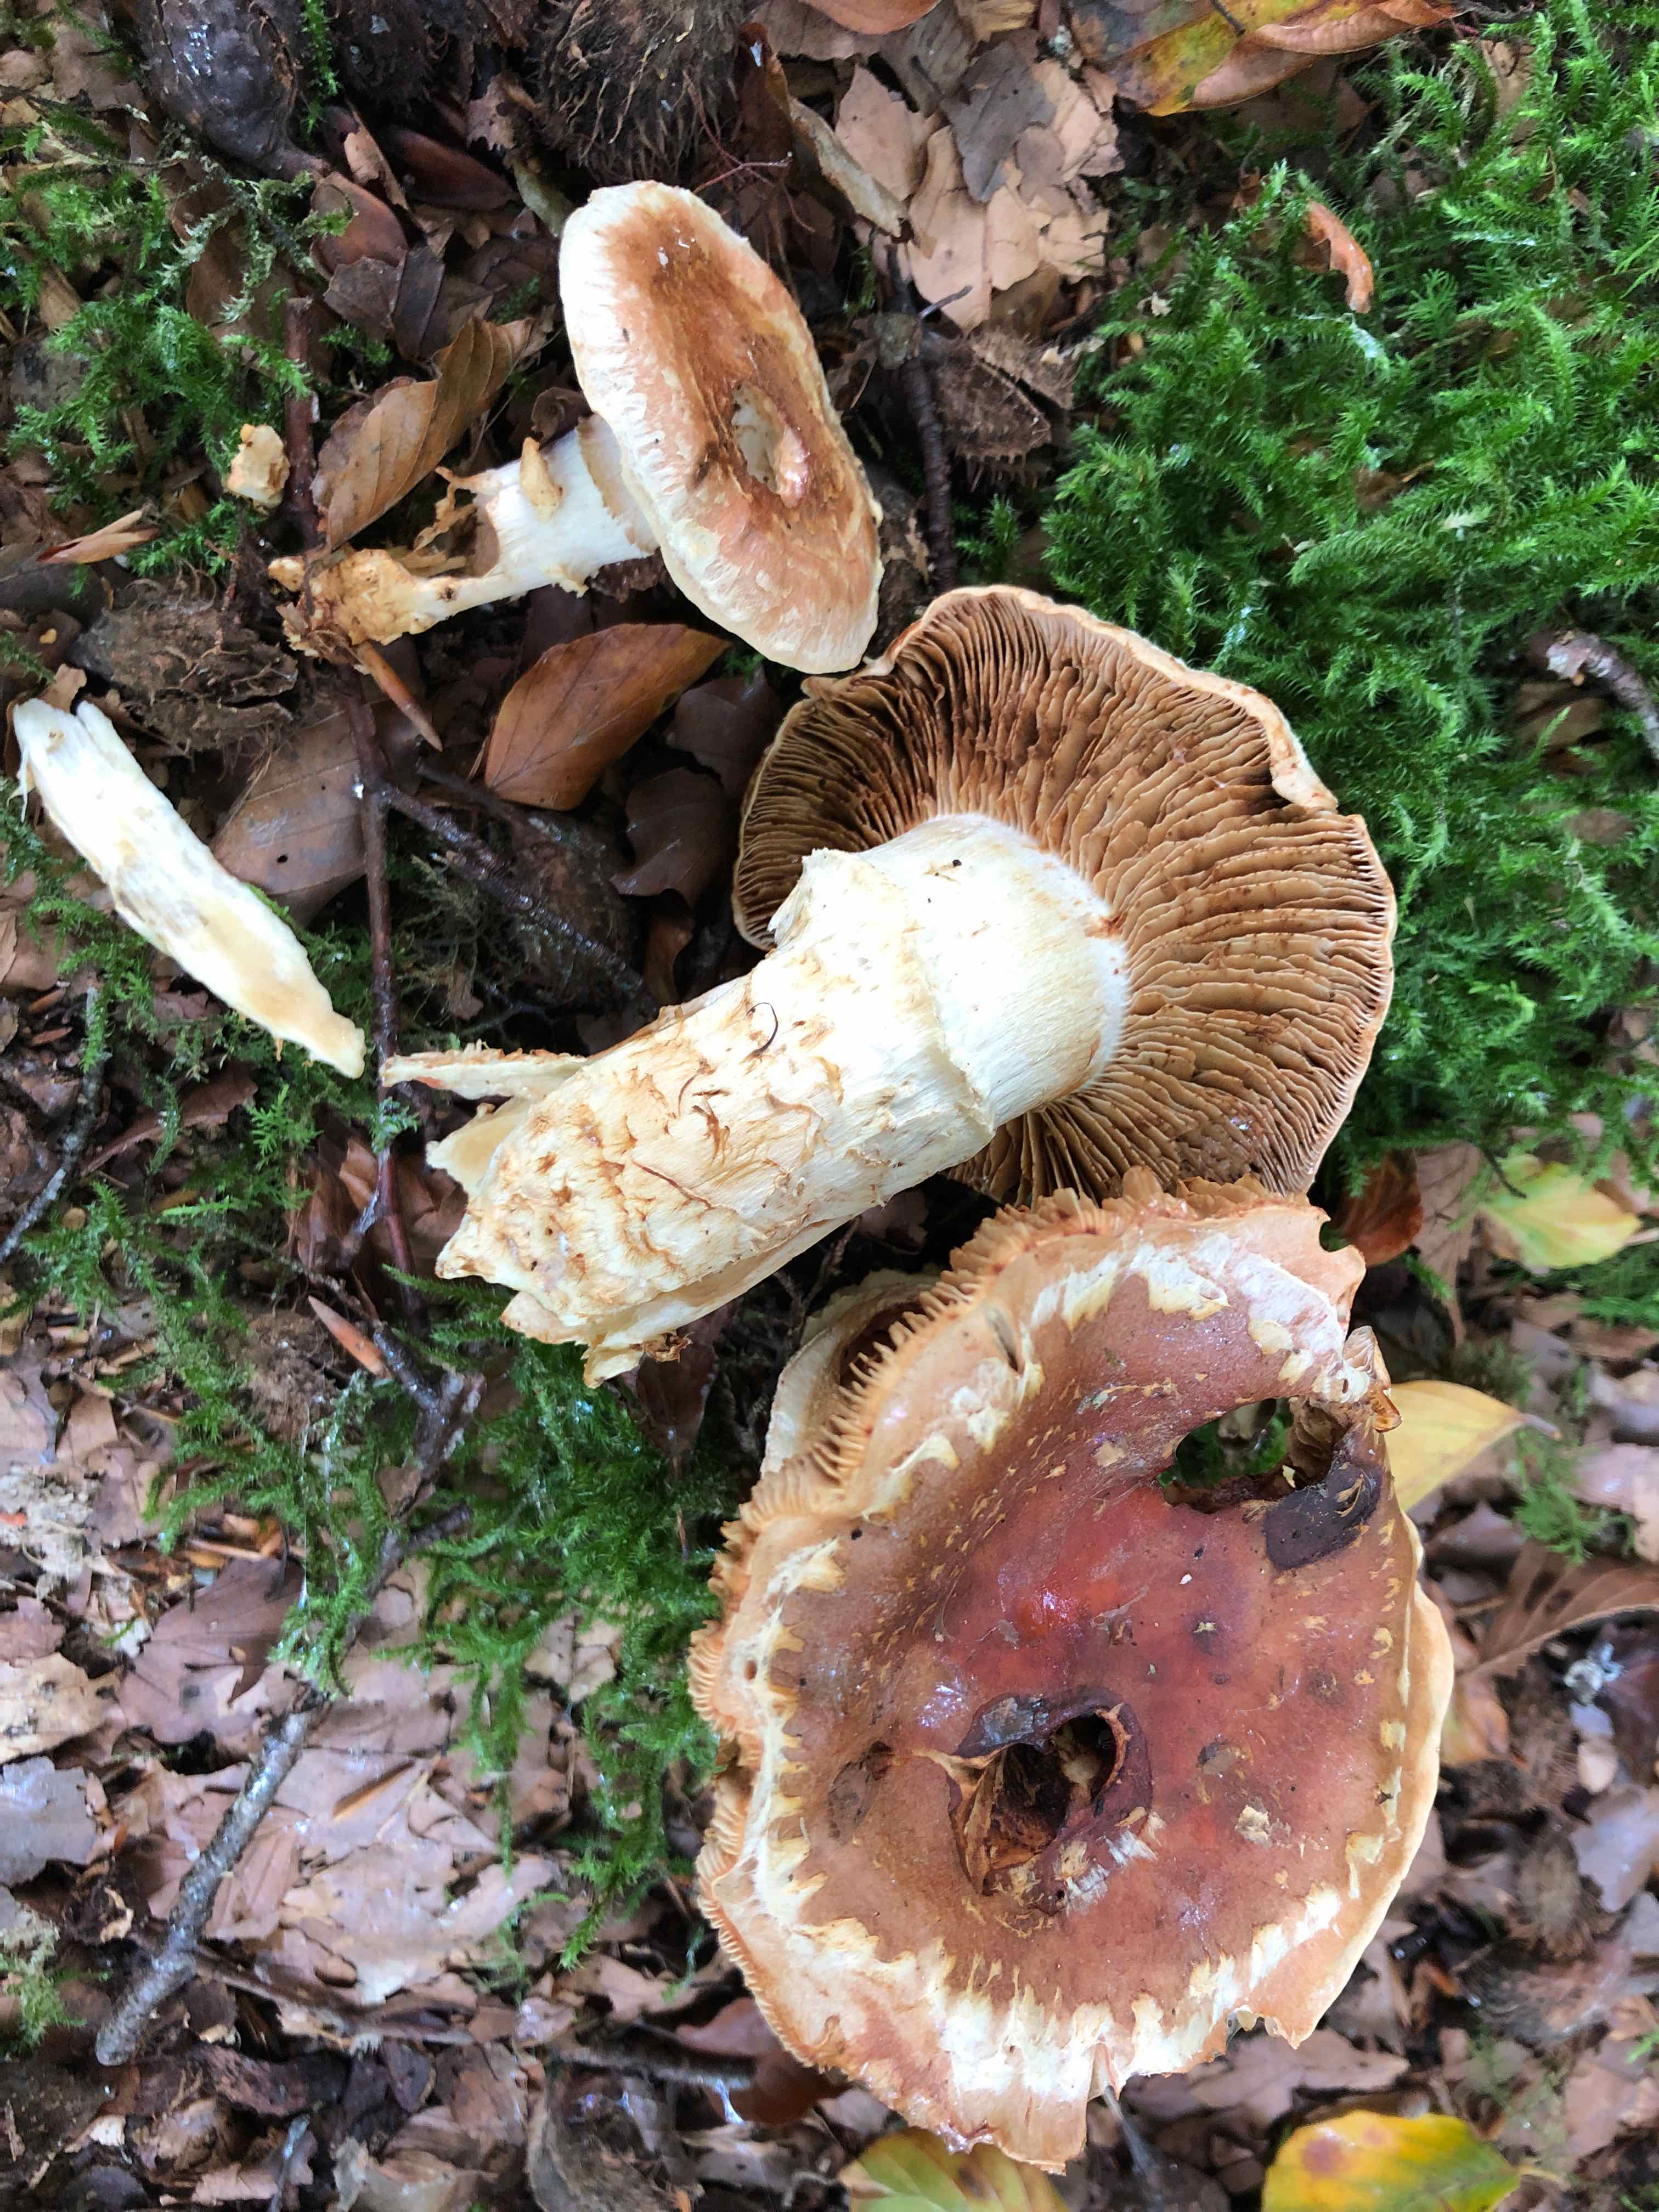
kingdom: Fungi
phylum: Basidiomycota
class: Agaricomycetes
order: Agaricales
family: Cortinariaceae
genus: Phlegmacium
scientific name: Phlegmacium vulpinum
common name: ringbæltet slørhat
